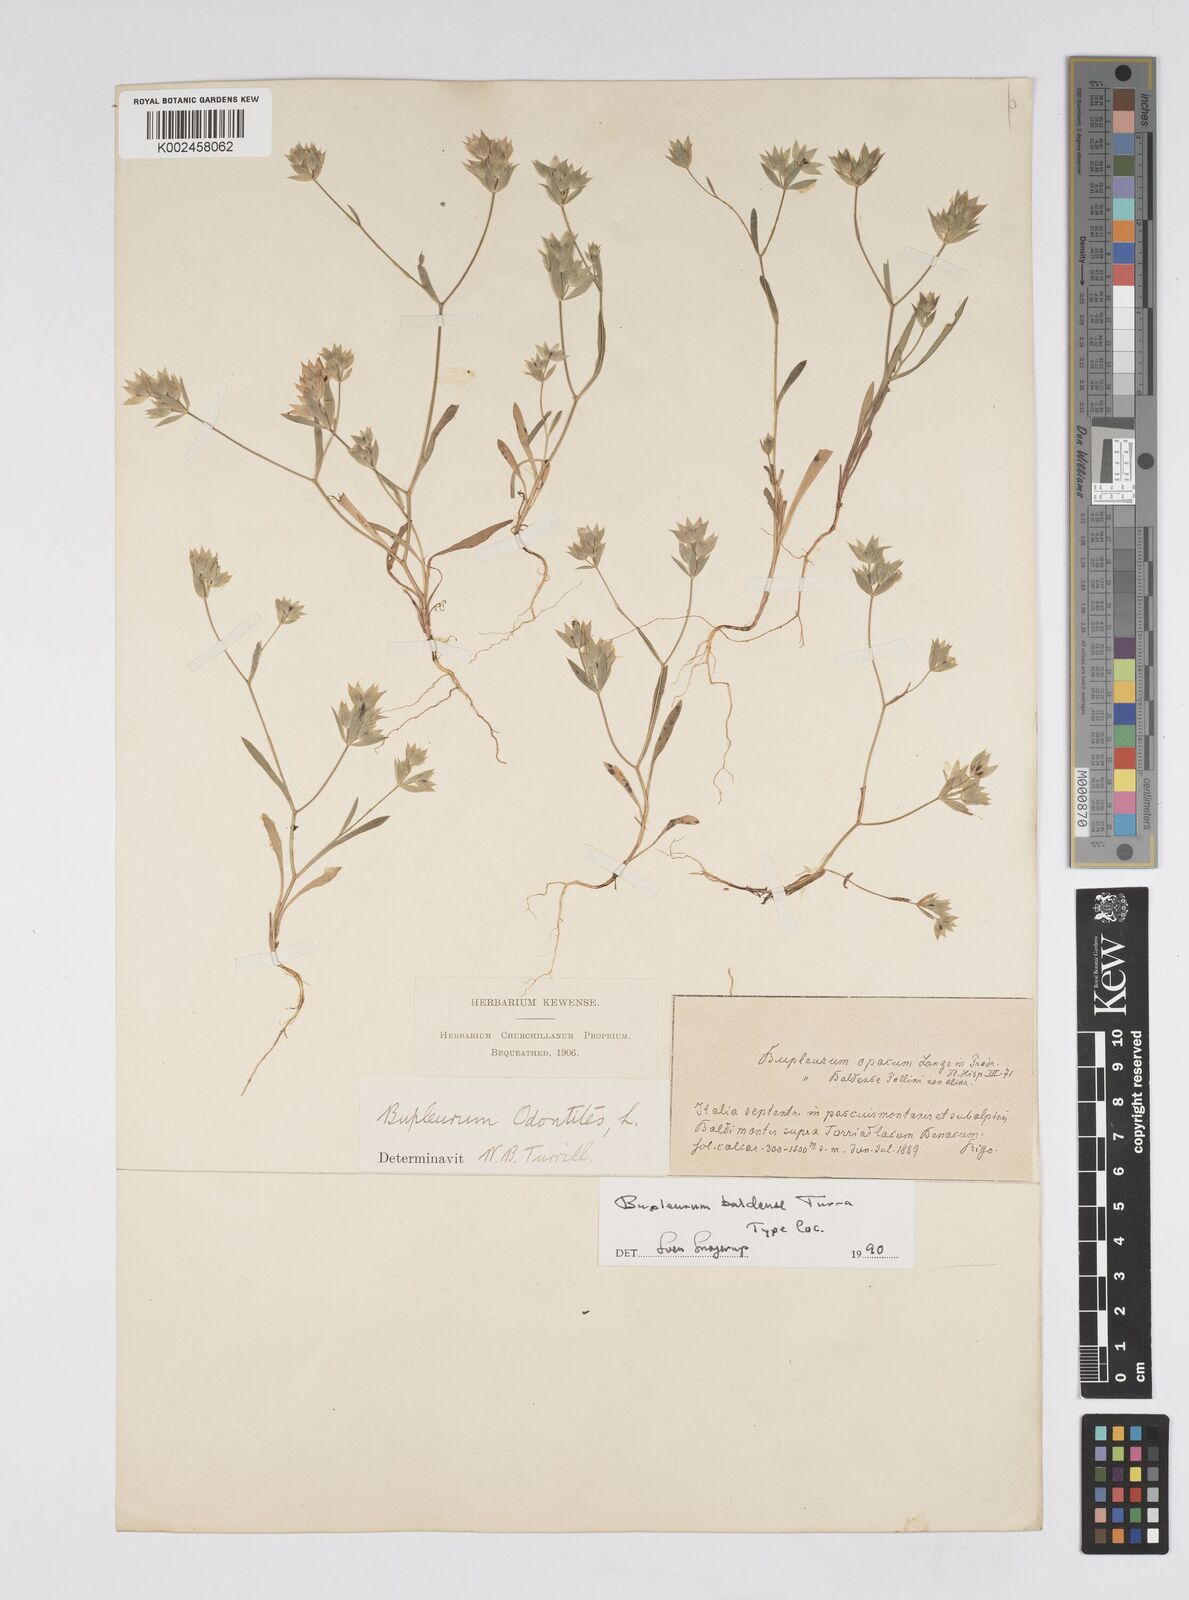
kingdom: Plantae
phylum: Tracheophyta
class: Magnoliopsida
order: Apiales
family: Apiaceae
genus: Bupleurum
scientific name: Bupleurum baldense
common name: Small hare's-ear
